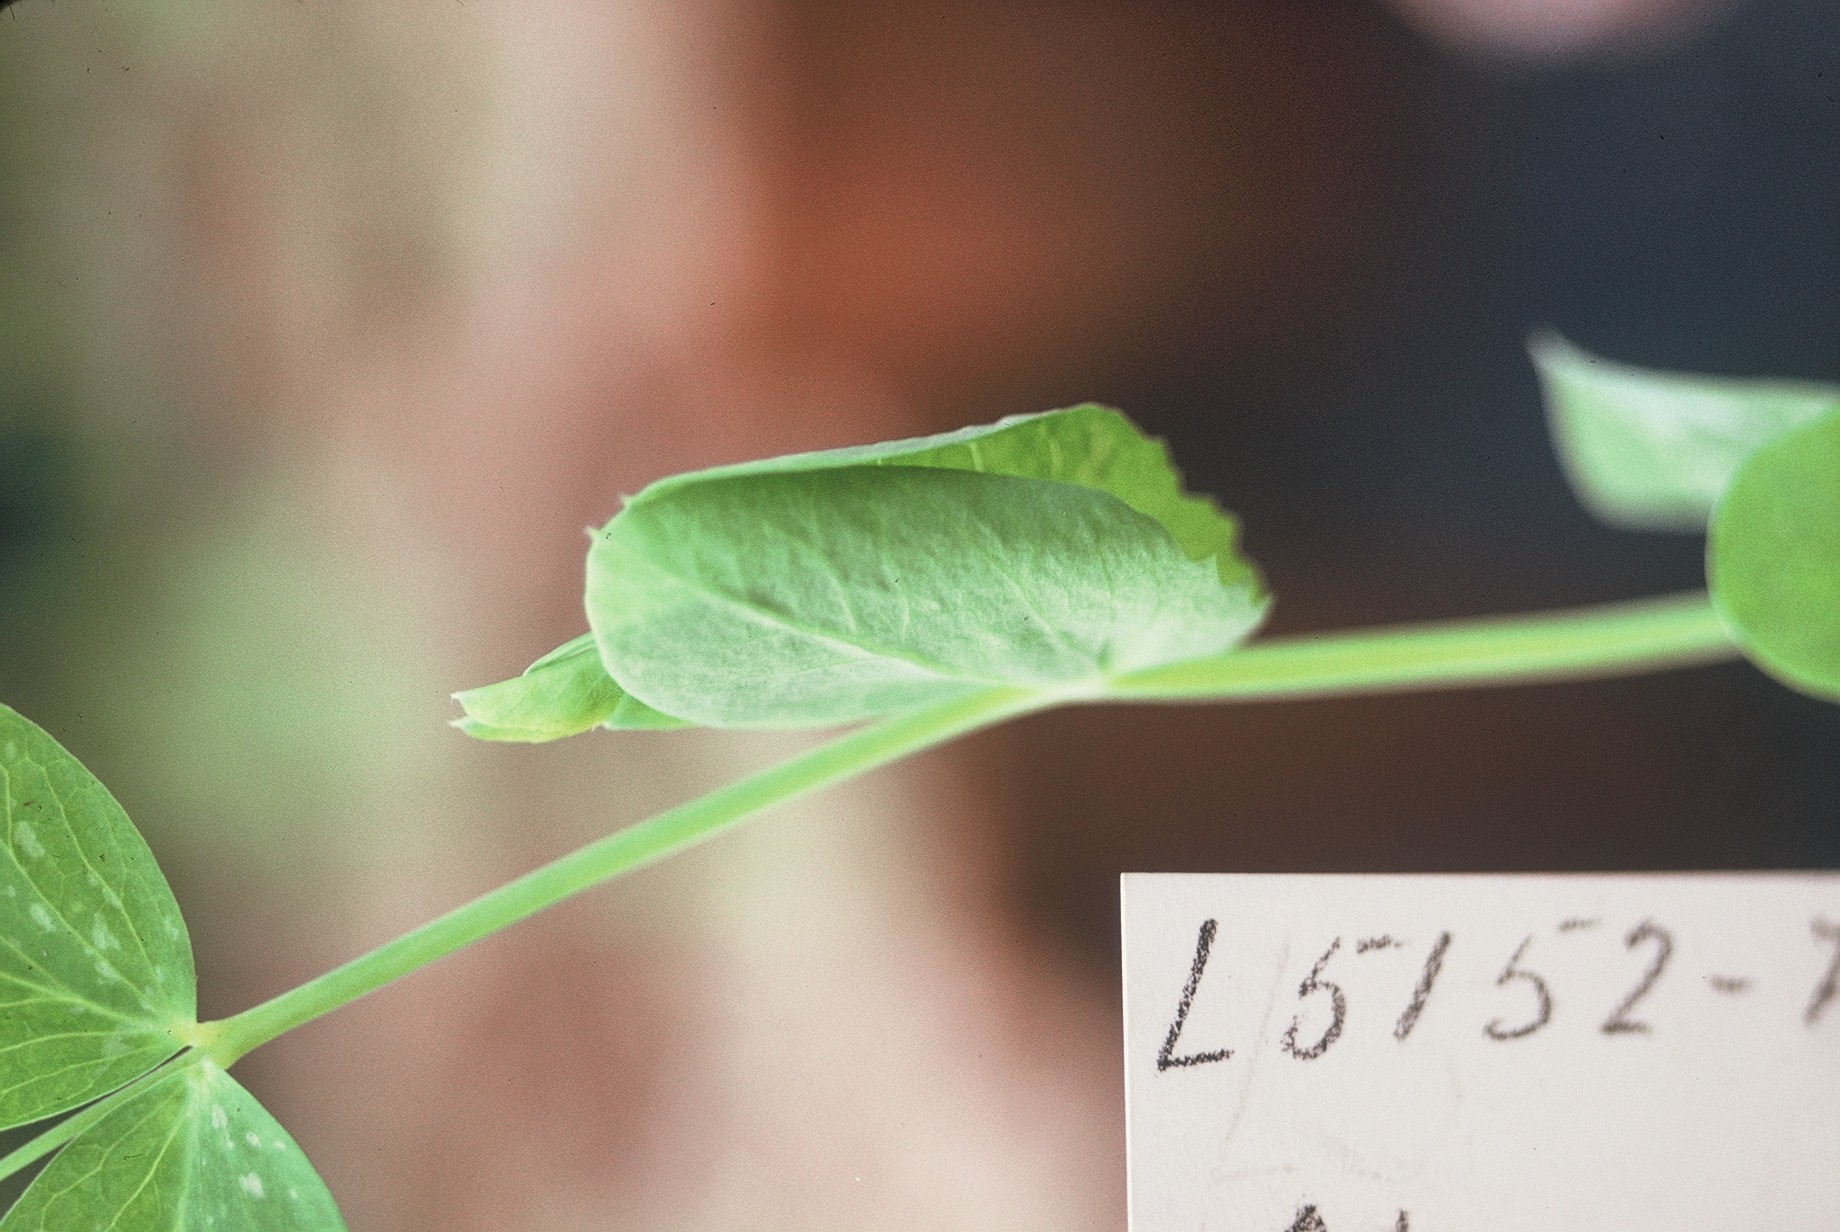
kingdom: Plantae
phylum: Tracheophyta
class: Magnoliopsida
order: Fabales
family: Fabaceae
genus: Lathyrus
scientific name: Lathyrus oleraceus
